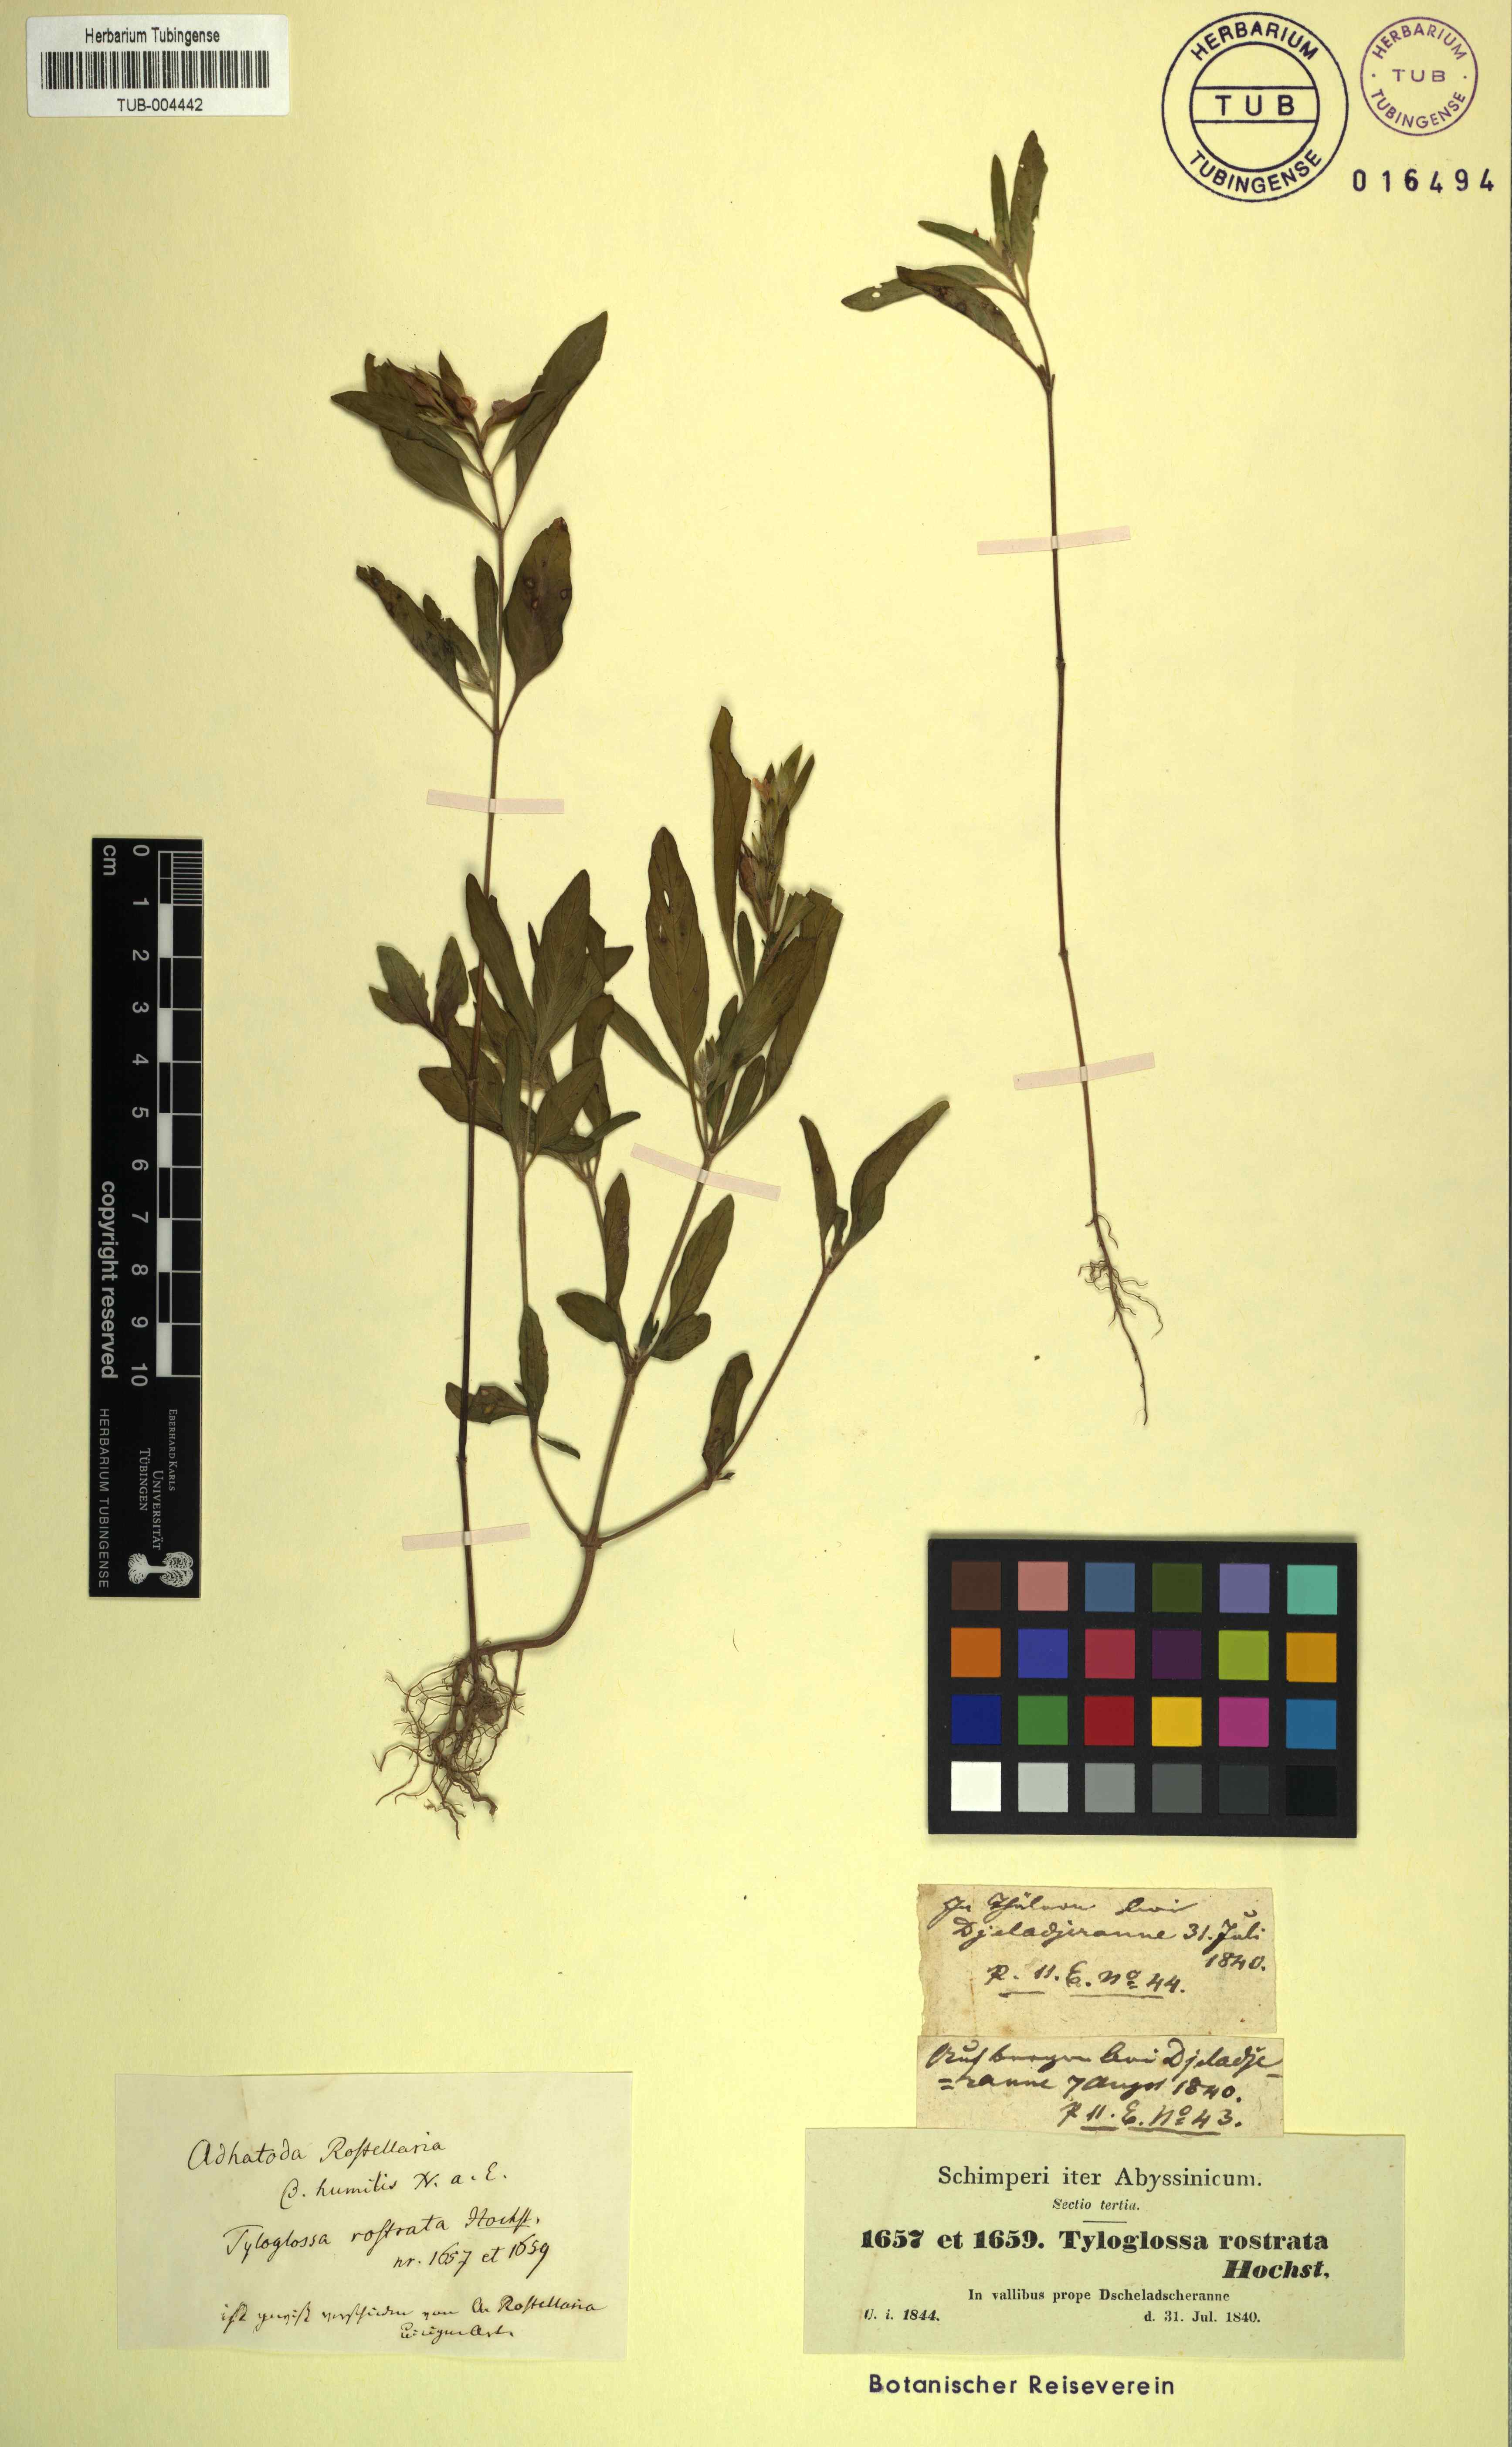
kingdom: Plantae
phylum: Tracheophyta
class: Magnoliopsida
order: Lamiales
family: Acanthaceae
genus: Justicia
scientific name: Justicia schimperiana
